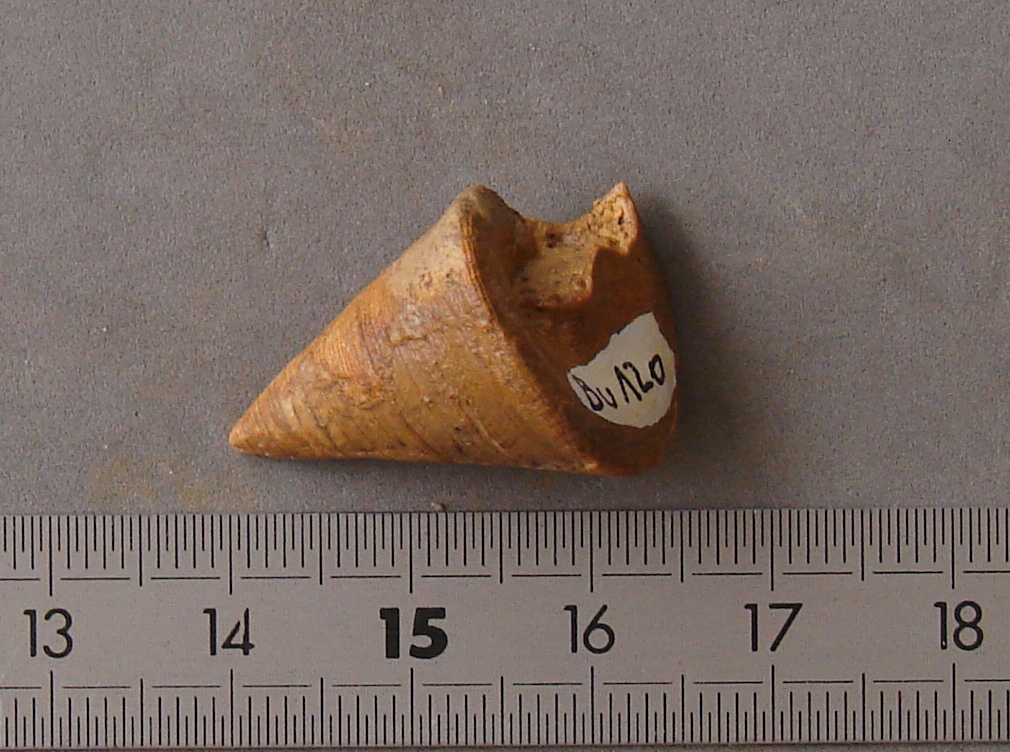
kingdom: Animalia
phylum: Mollusca
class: Gastropoda
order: Pleurotomariida
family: Pleurotomariidae
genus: Leptomaria
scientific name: Leptomaria Trochus punctatus
